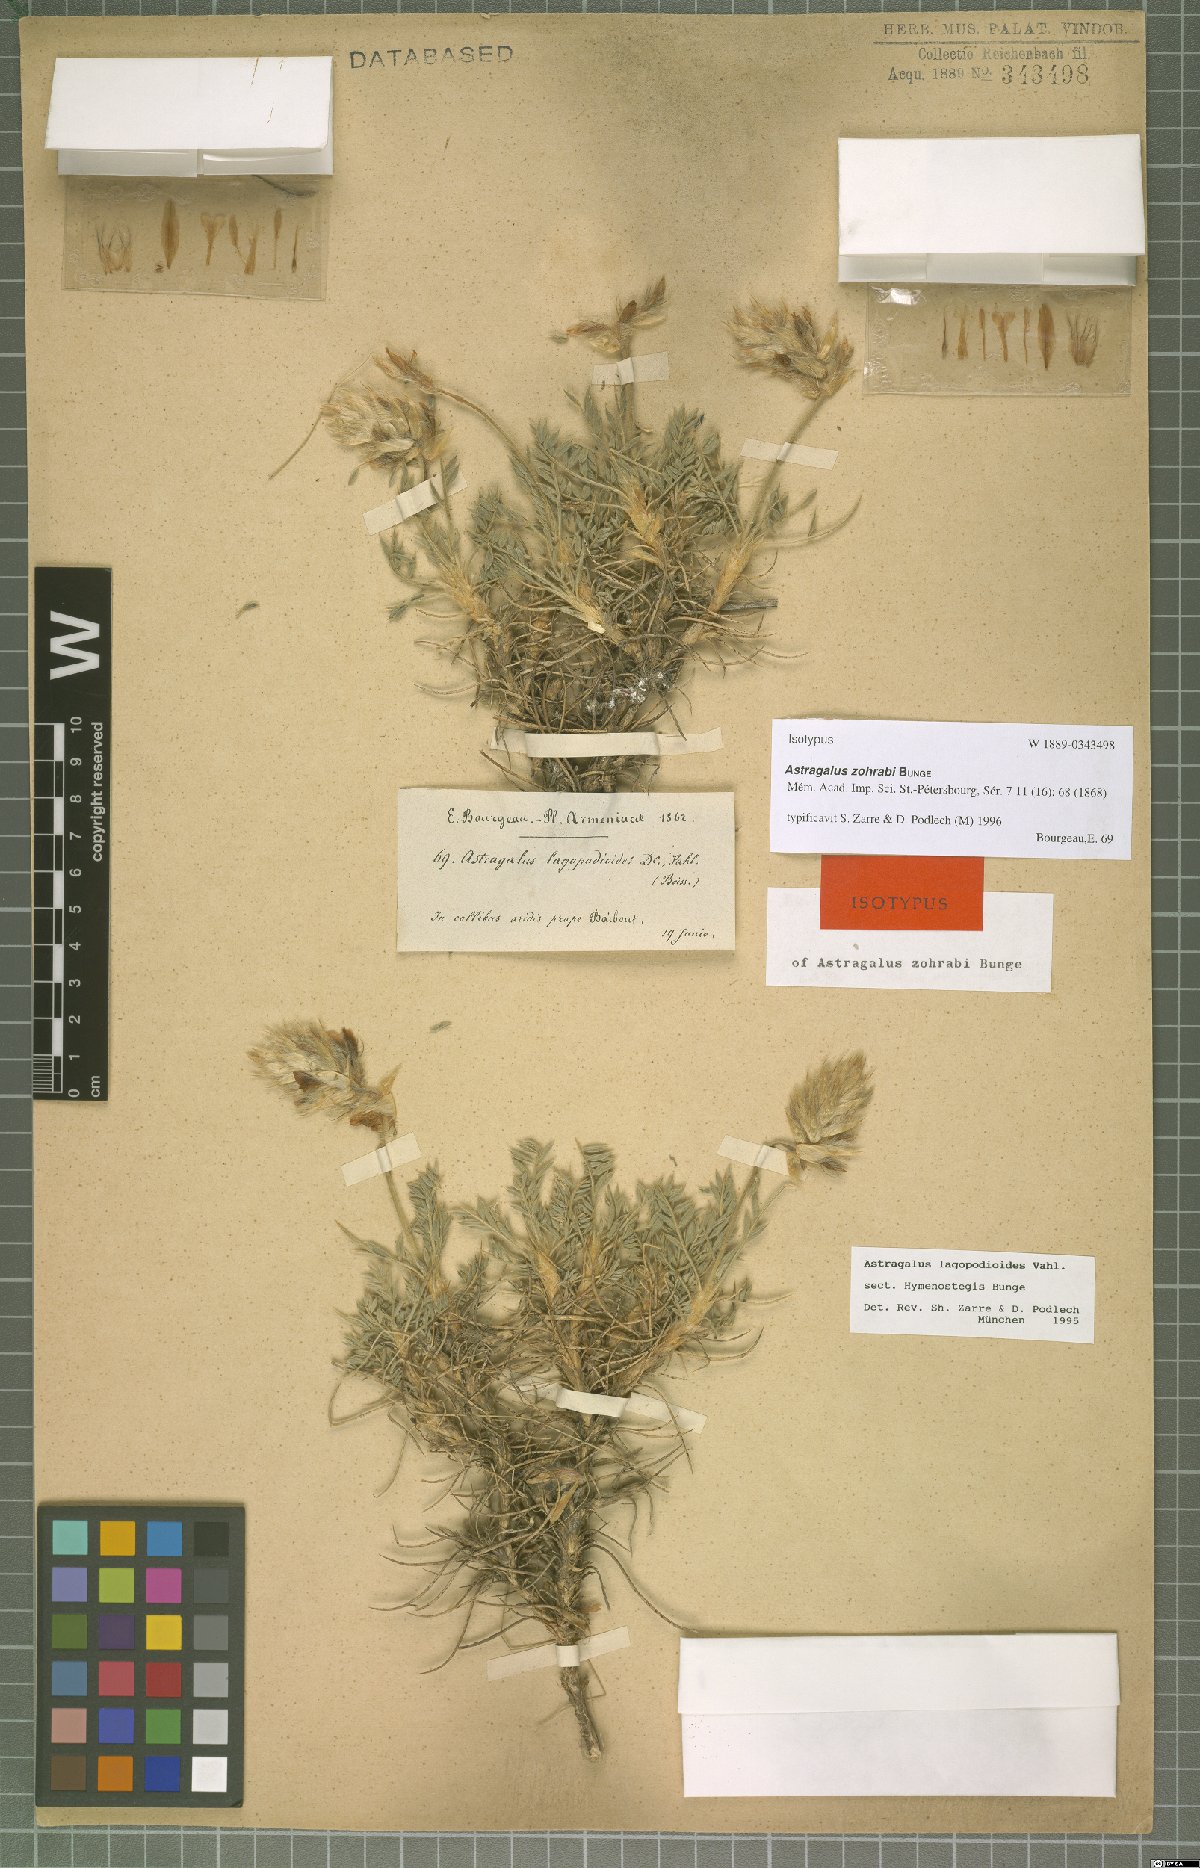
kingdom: Plantae
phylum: Tracheophyta
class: Magnoliopsida
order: Fabales
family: Fabaceae
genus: Astragalus
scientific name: Astragalus lagopodioides
